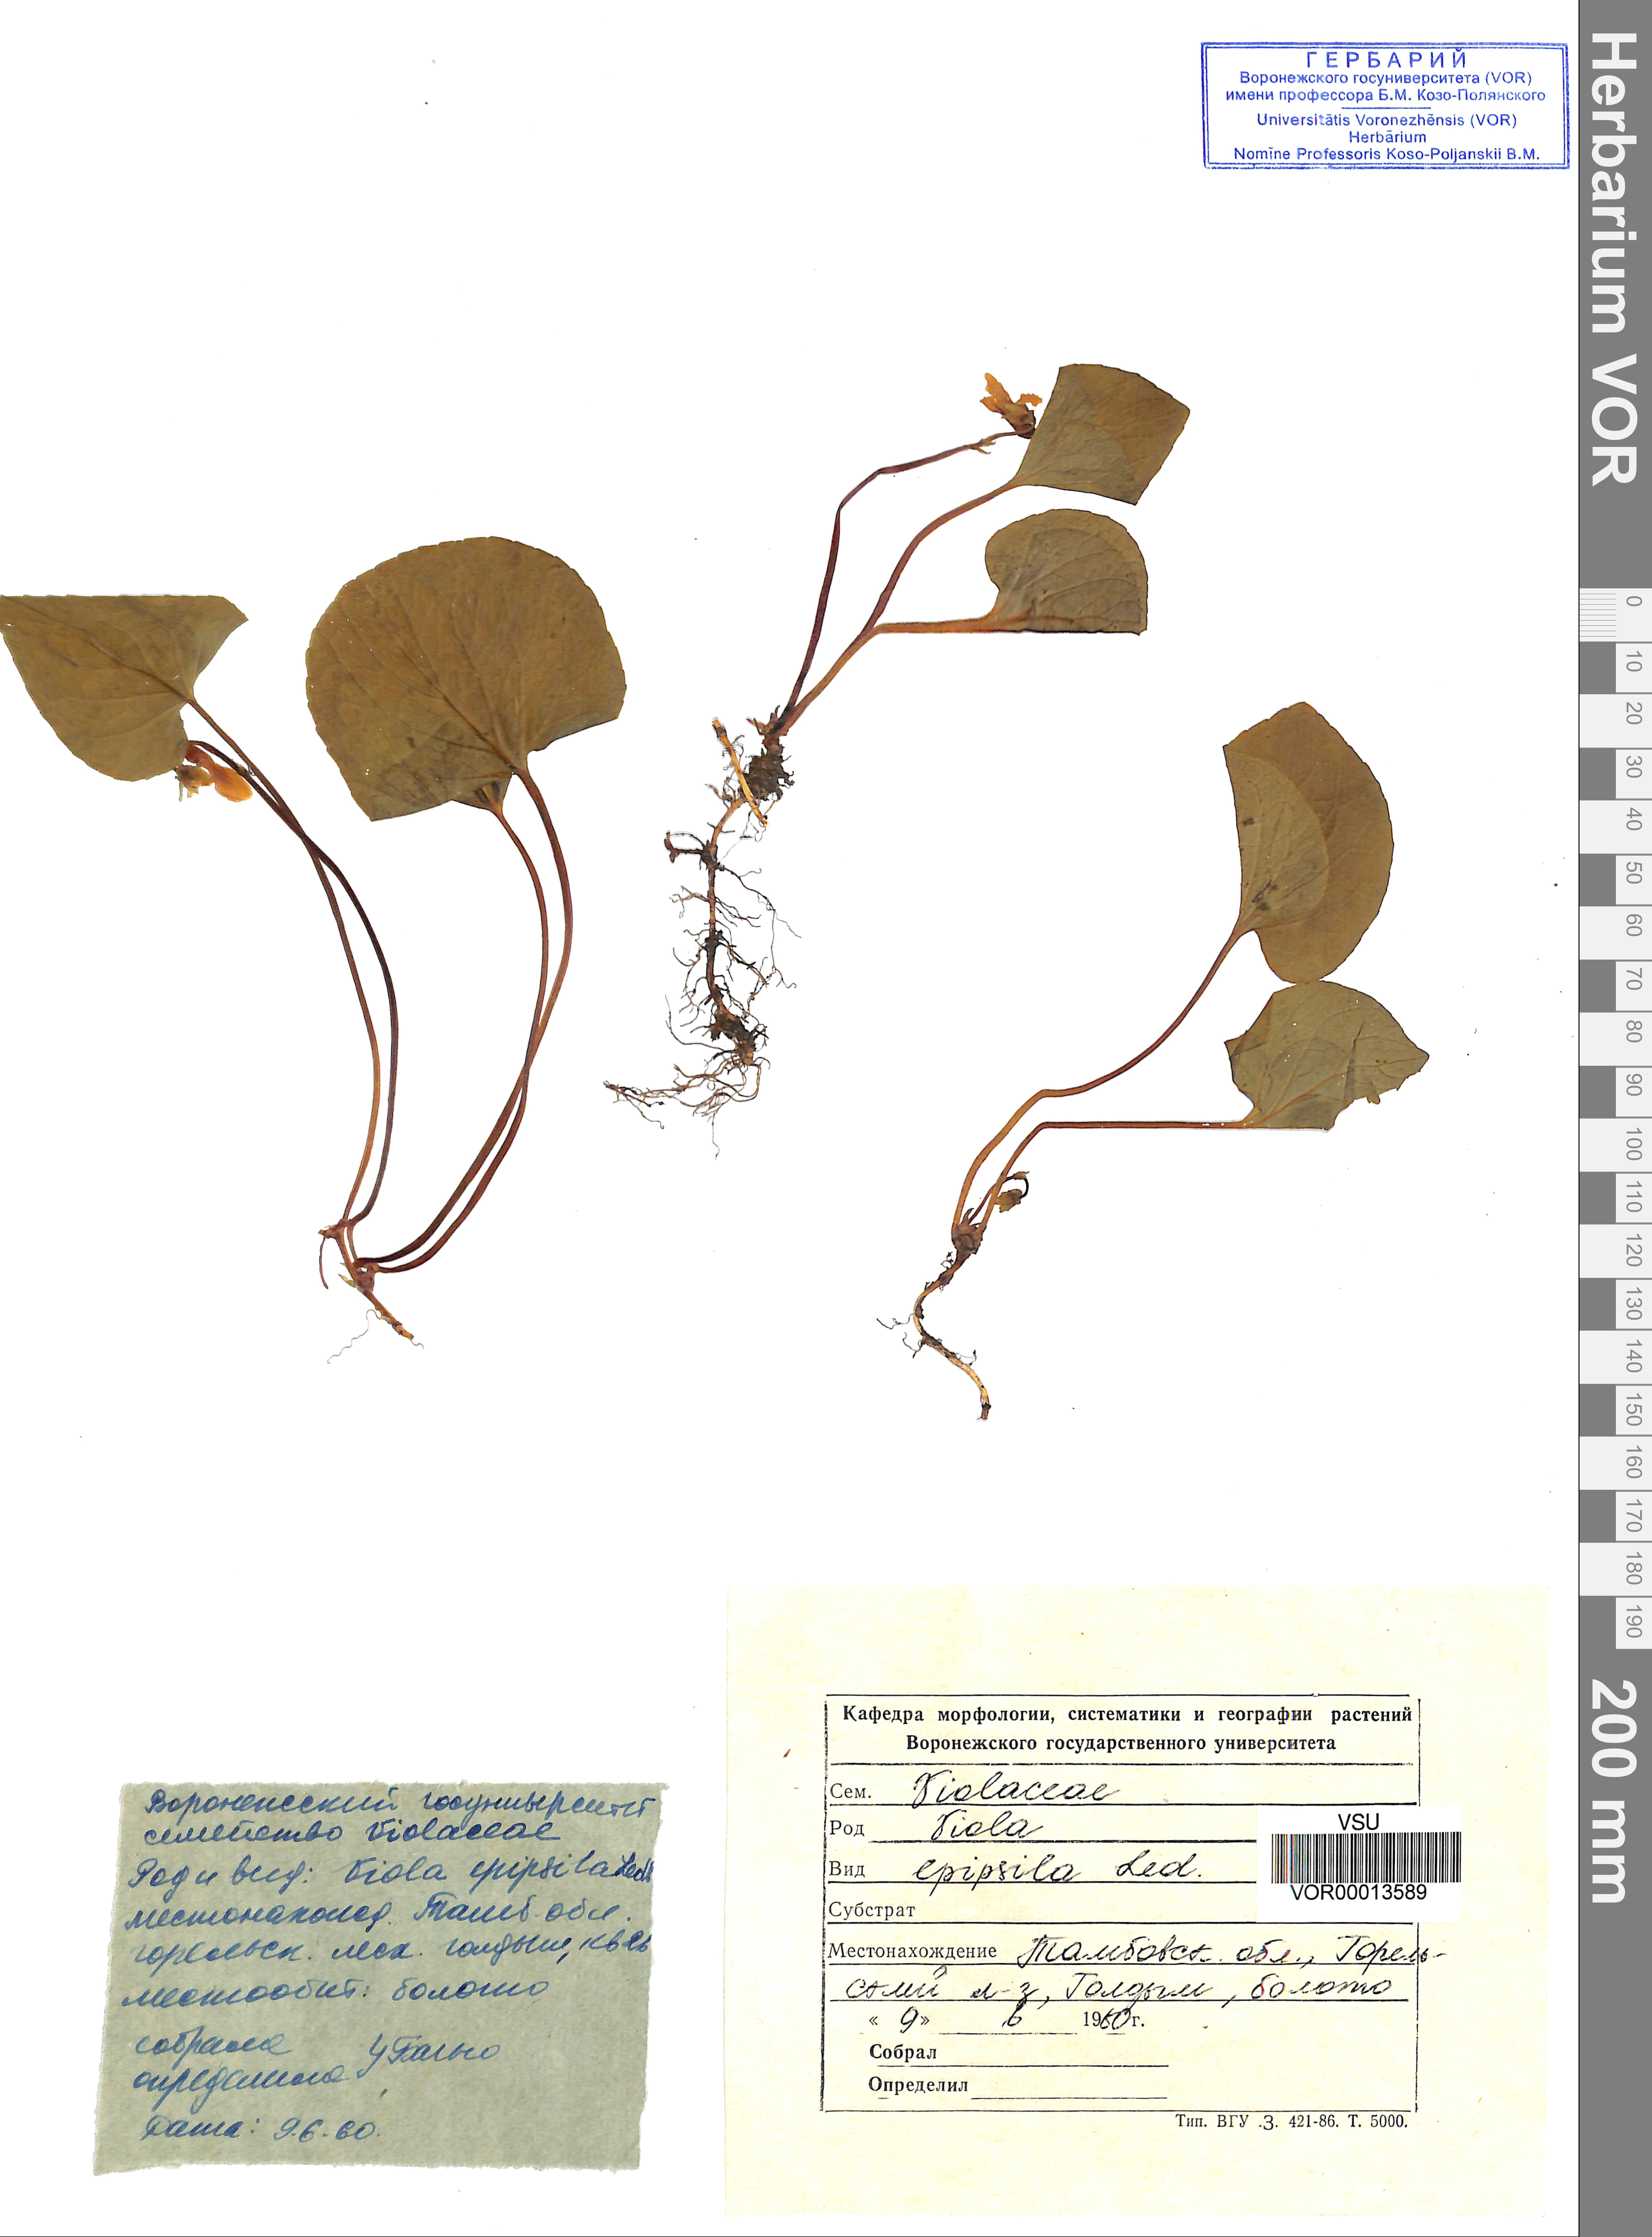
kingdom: Plantae
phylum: Tracheophyta
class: Magnoliopsida
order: Malpighiales
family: Violaceae
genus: Viola
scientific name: Viola epipsila
